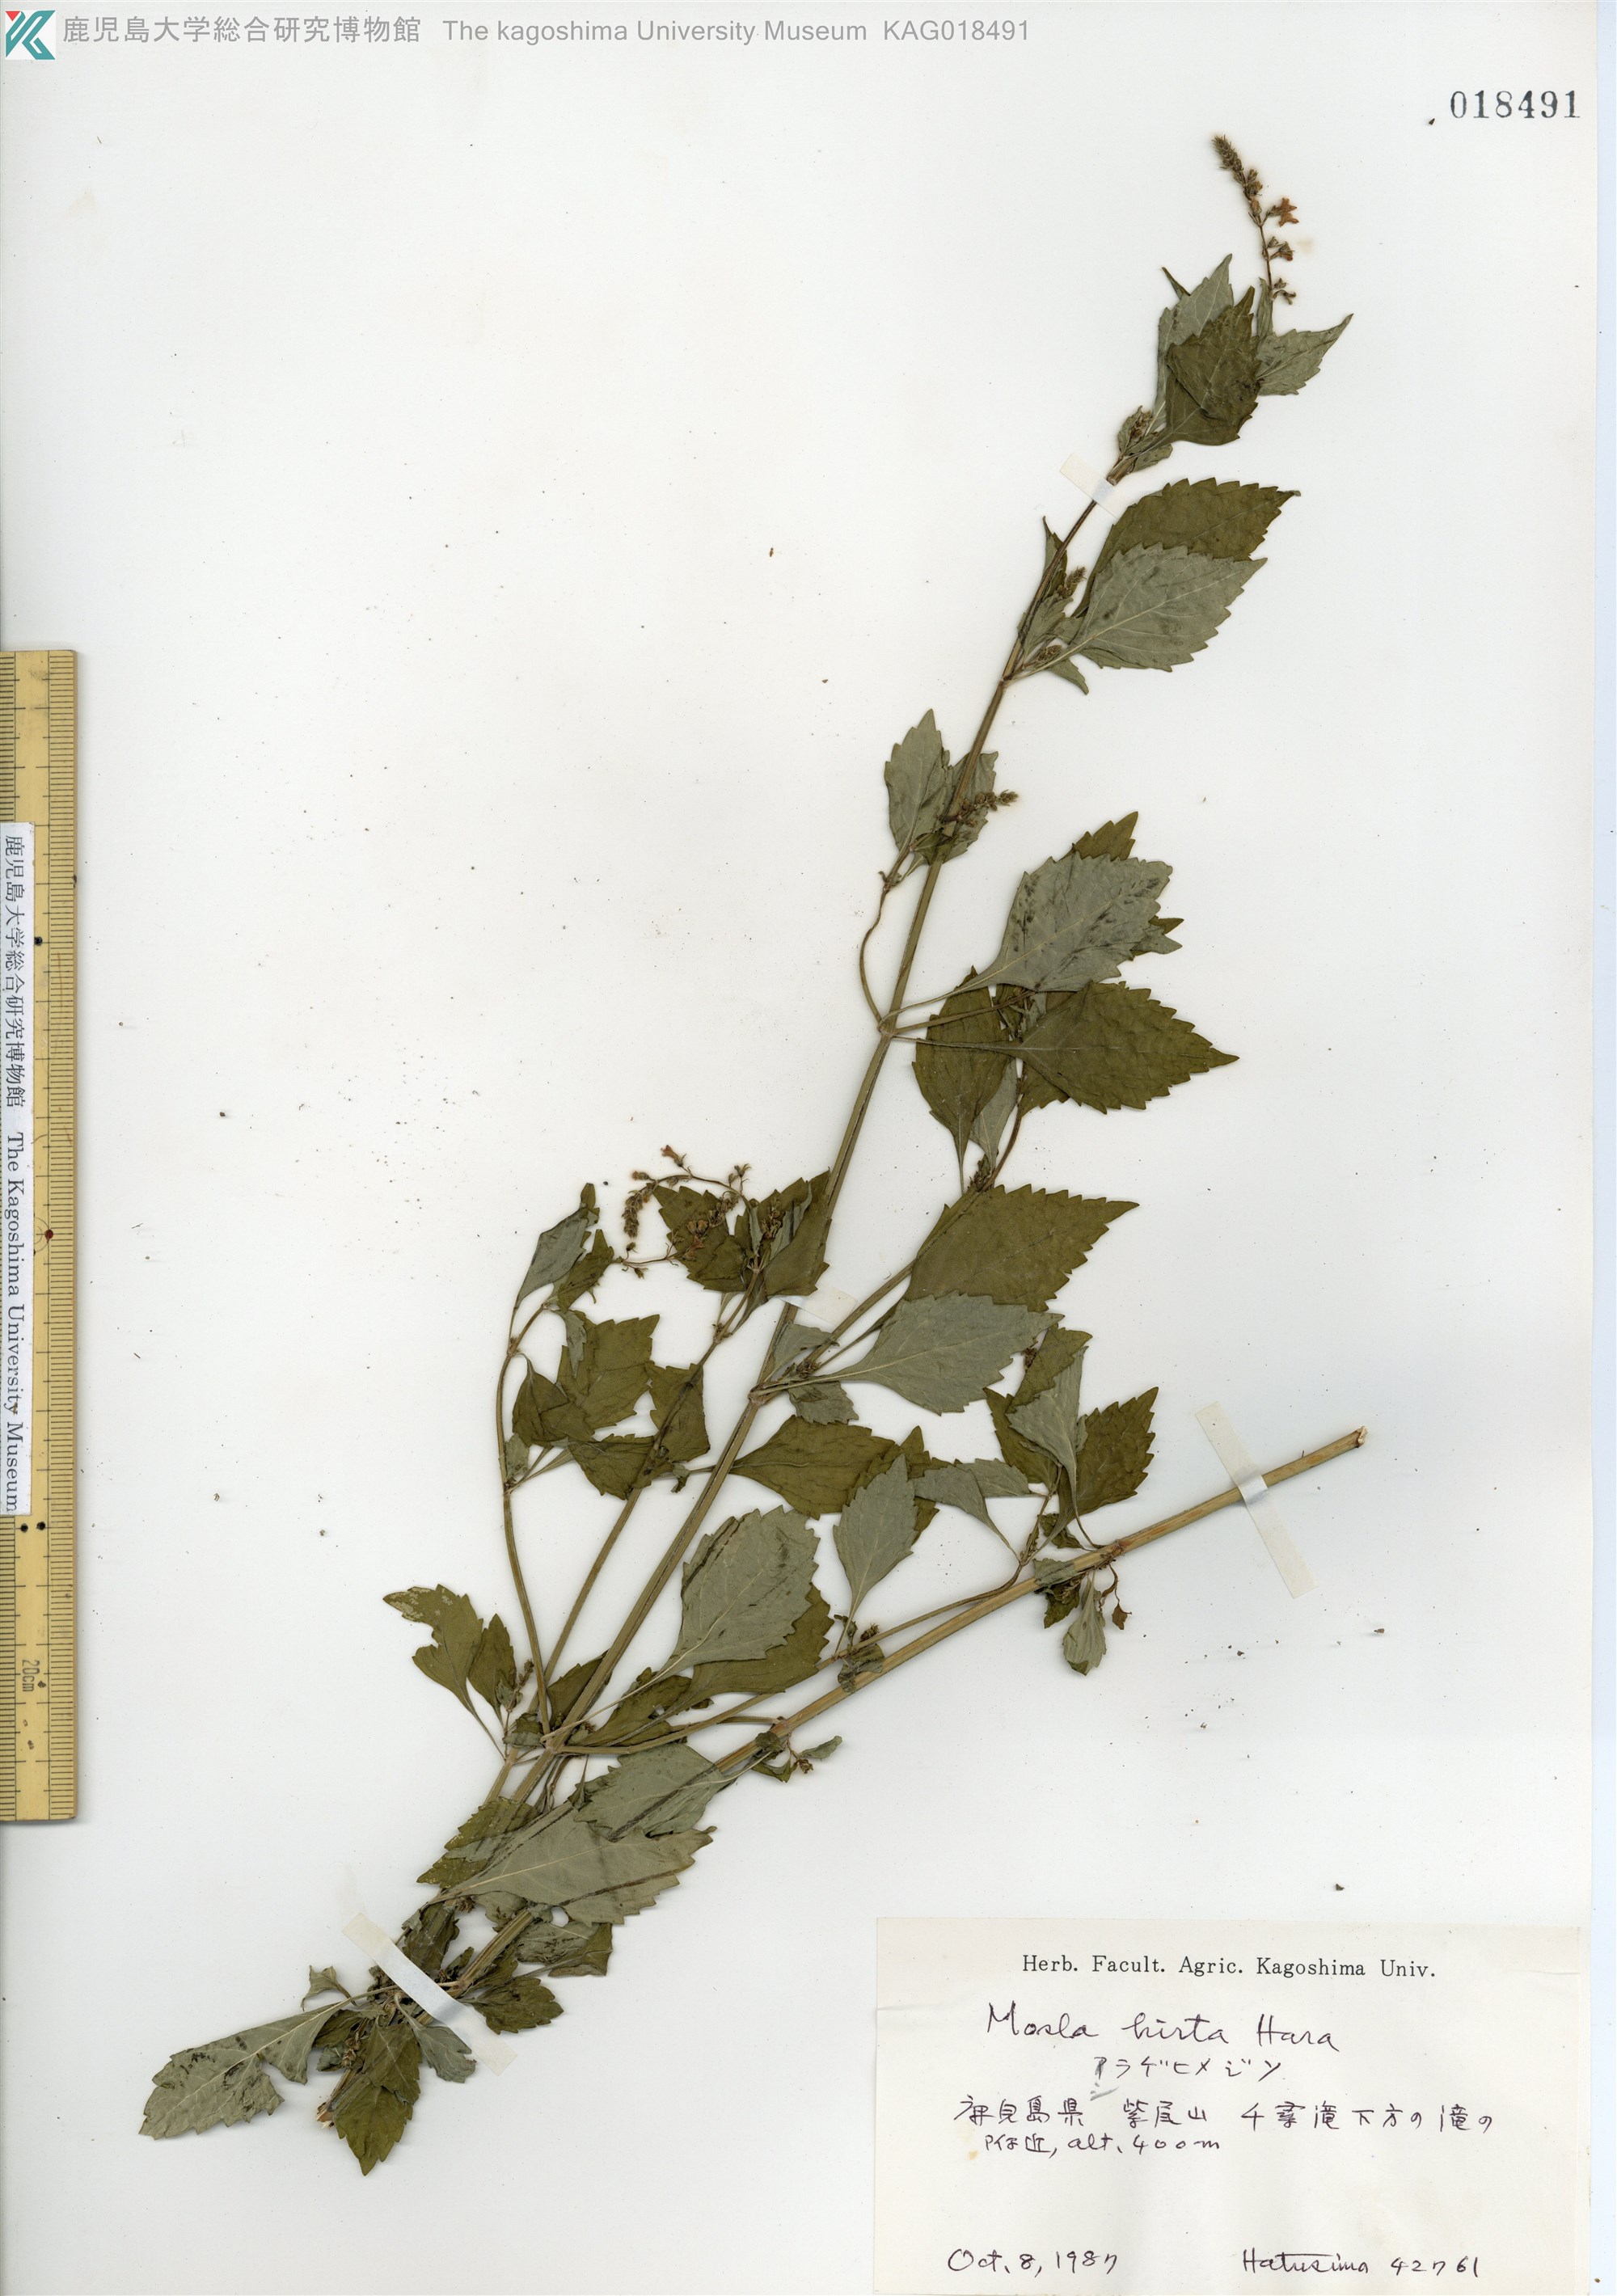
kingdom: Plantae
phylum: Tracheophyta
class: Magnoliopsida
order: Lamiales
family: Lamiaceae
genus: Mosla
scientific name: Mosla dianthera
